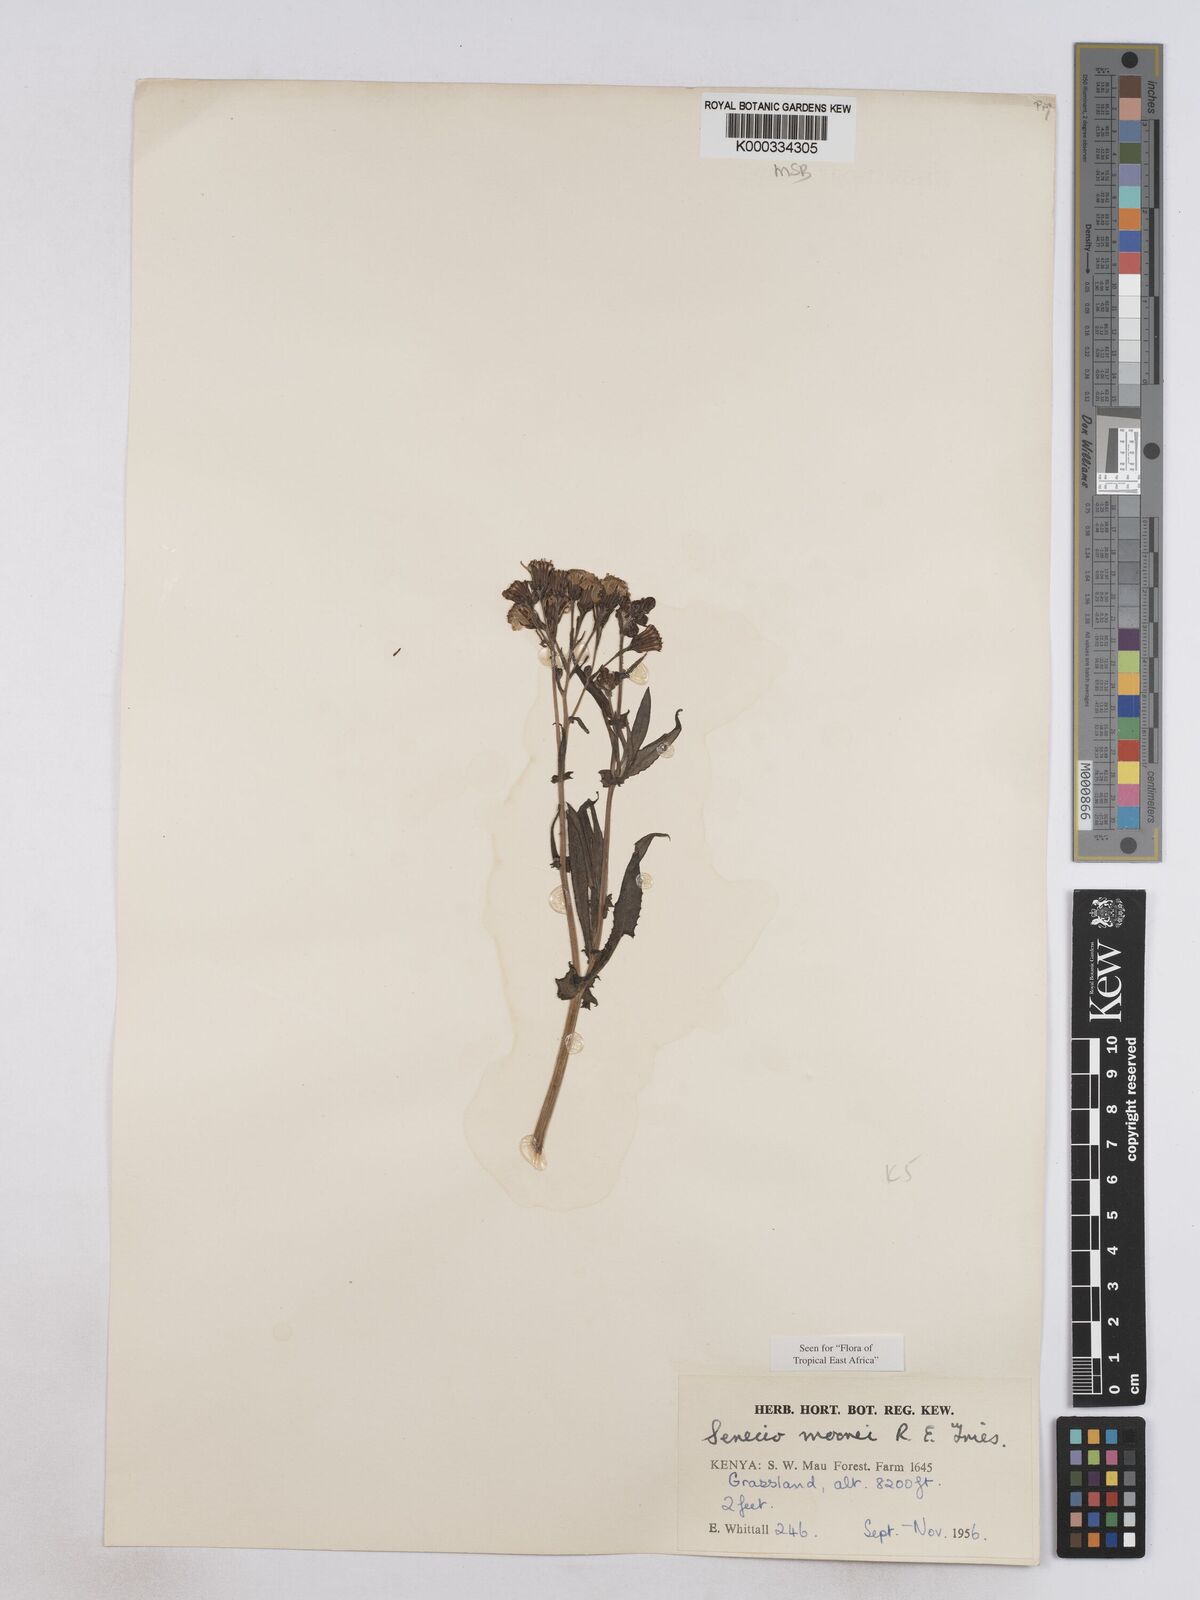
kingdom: Plantae
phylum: Tracheophyta
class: Magnoliopsida
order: Asterales
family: Asteraceae
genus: Senecio
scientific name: Senecio moorei
